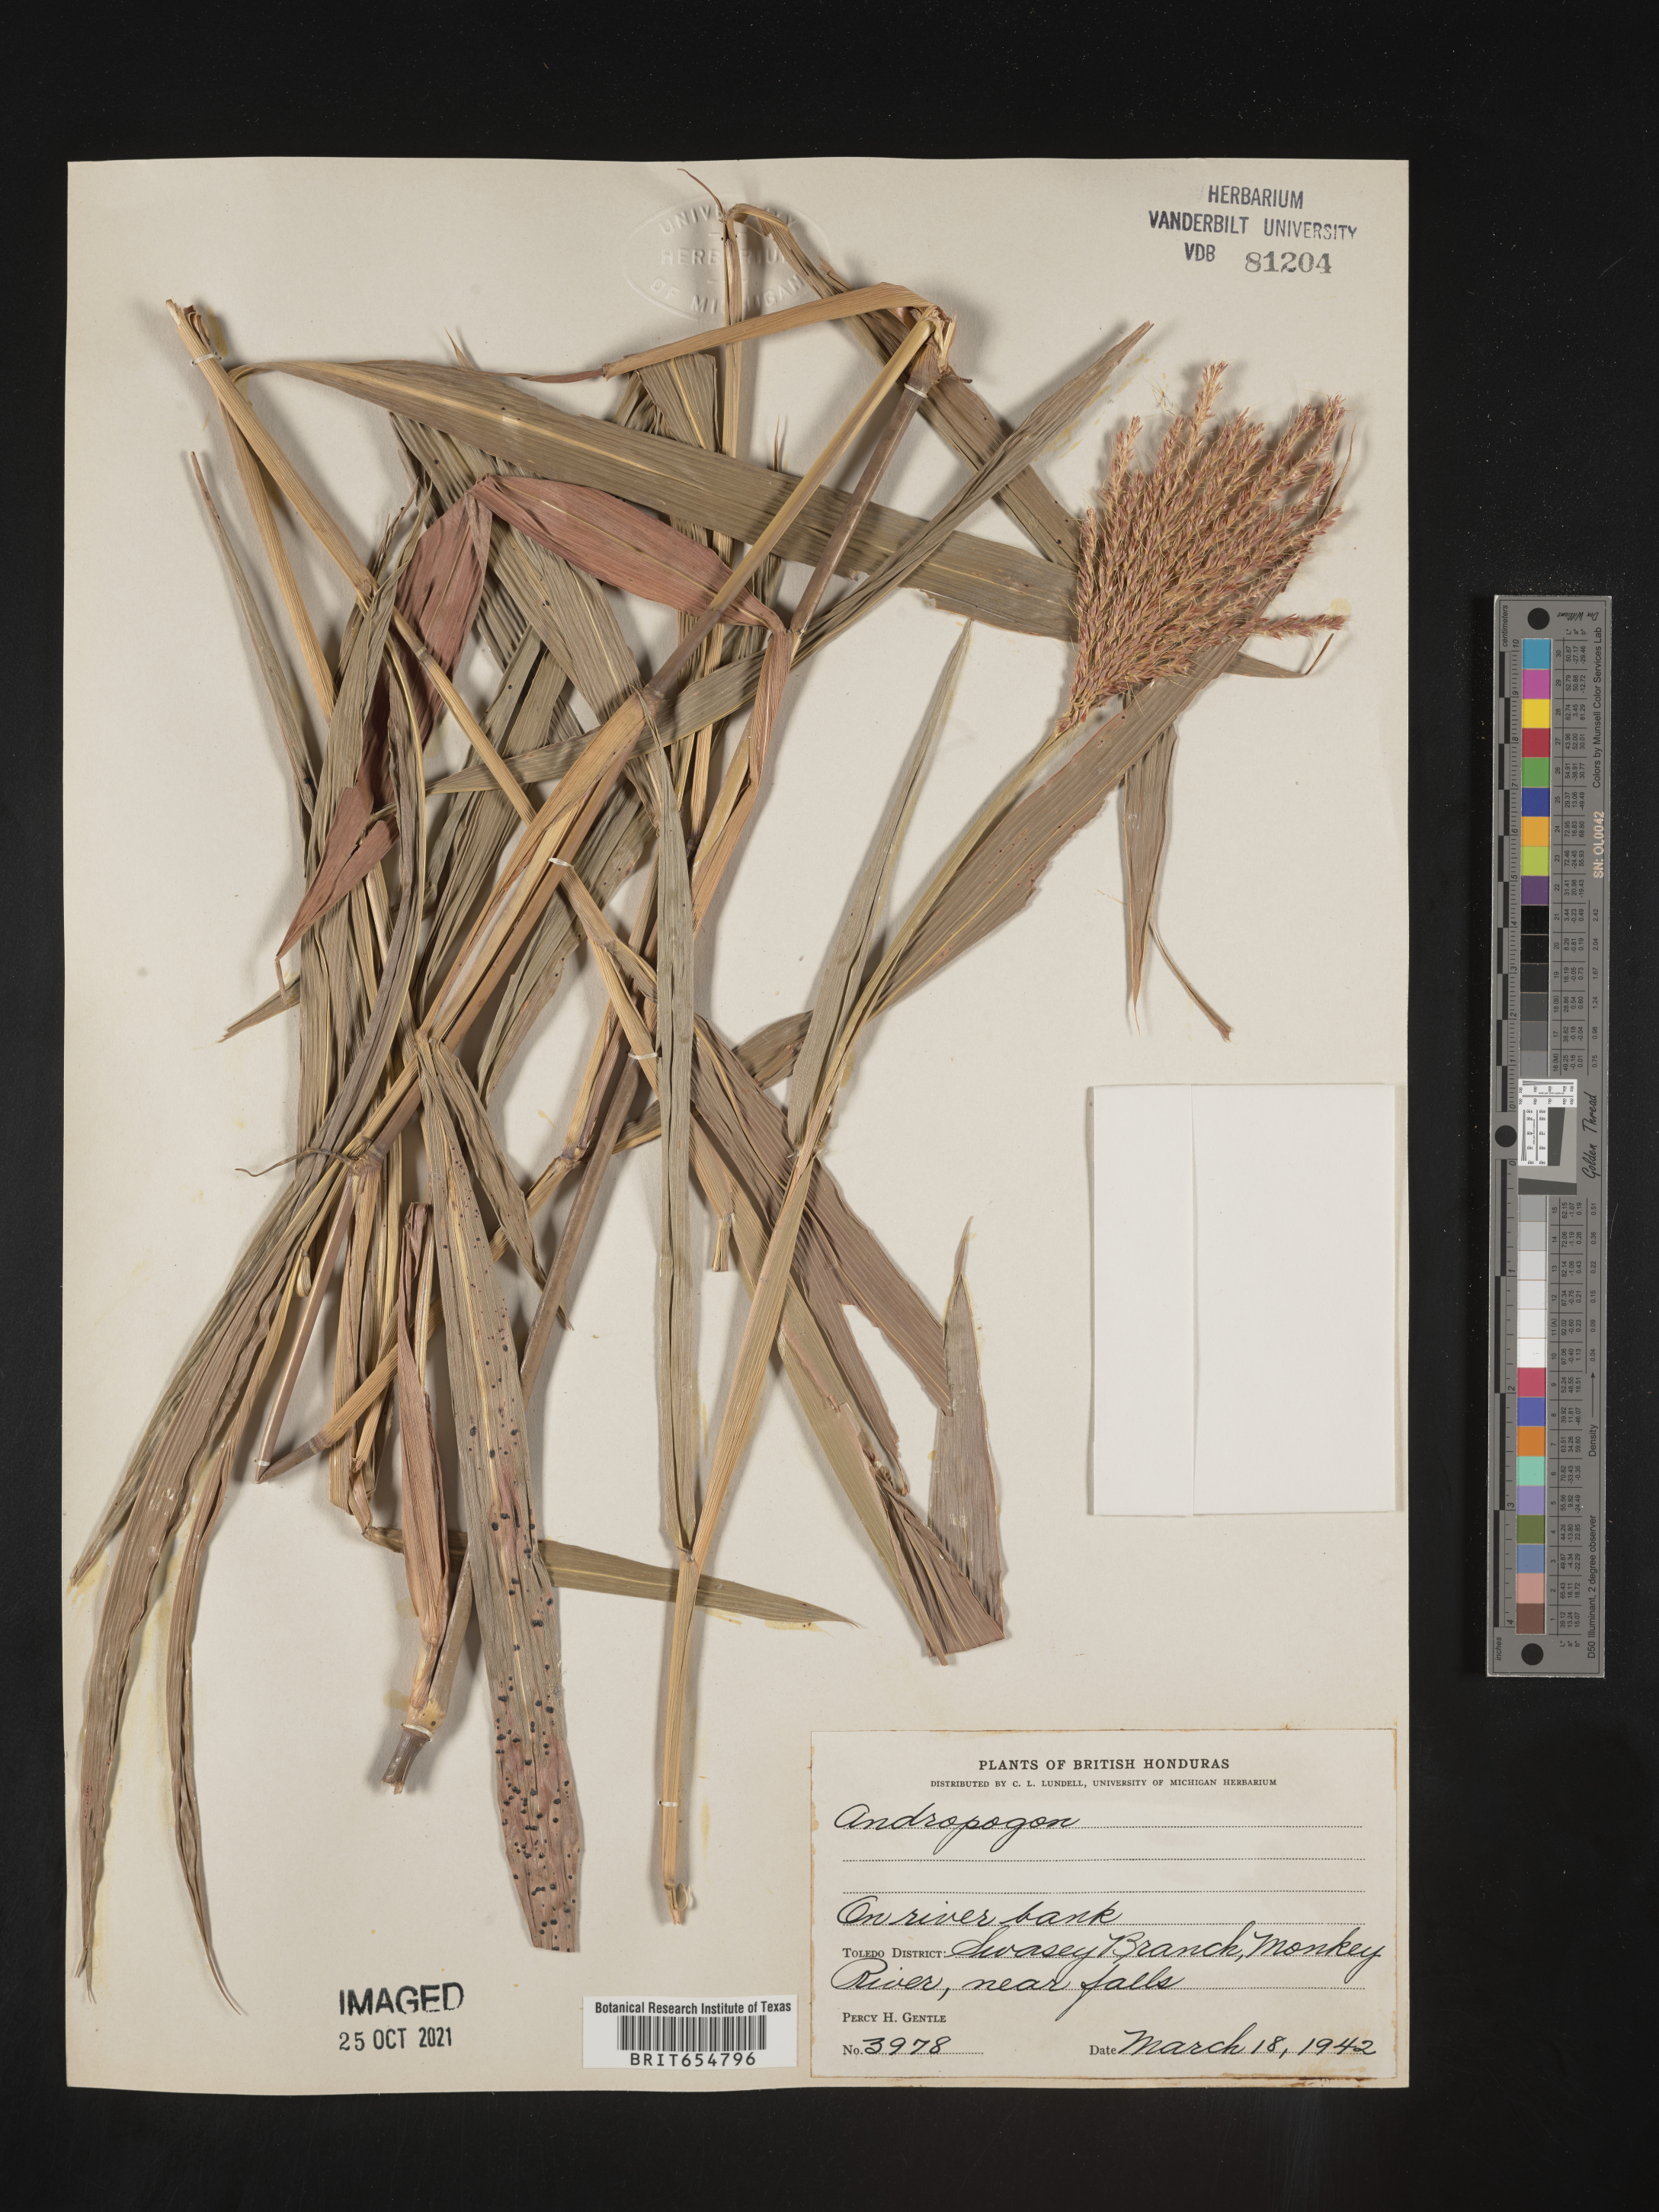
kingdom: Plantae
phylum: Tracheophyta
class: Liliopsida
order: Poales
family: Poaceae
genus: Andropogon
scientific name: Andropogon
